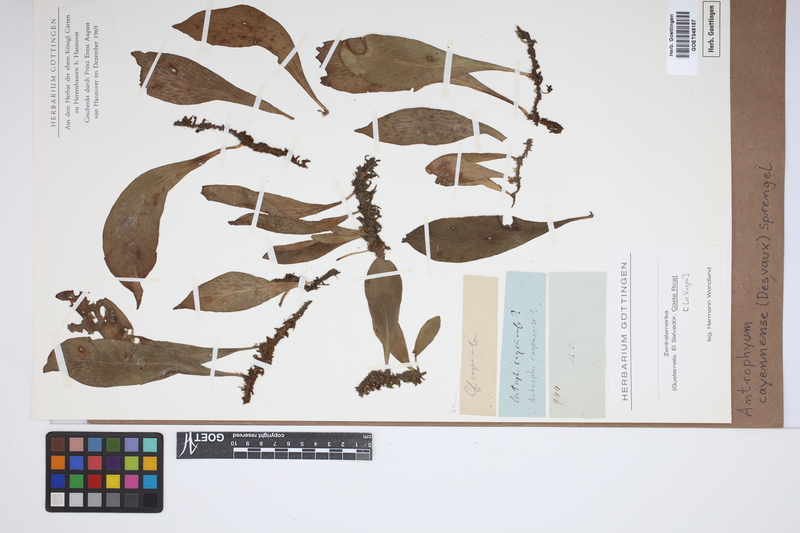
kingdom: Plantae
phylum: Tracheophyta
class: Polypodiopsida
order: Polypodiales
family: Pteridaceae
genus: Polytaenium
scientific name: Polytaenium cajenense
